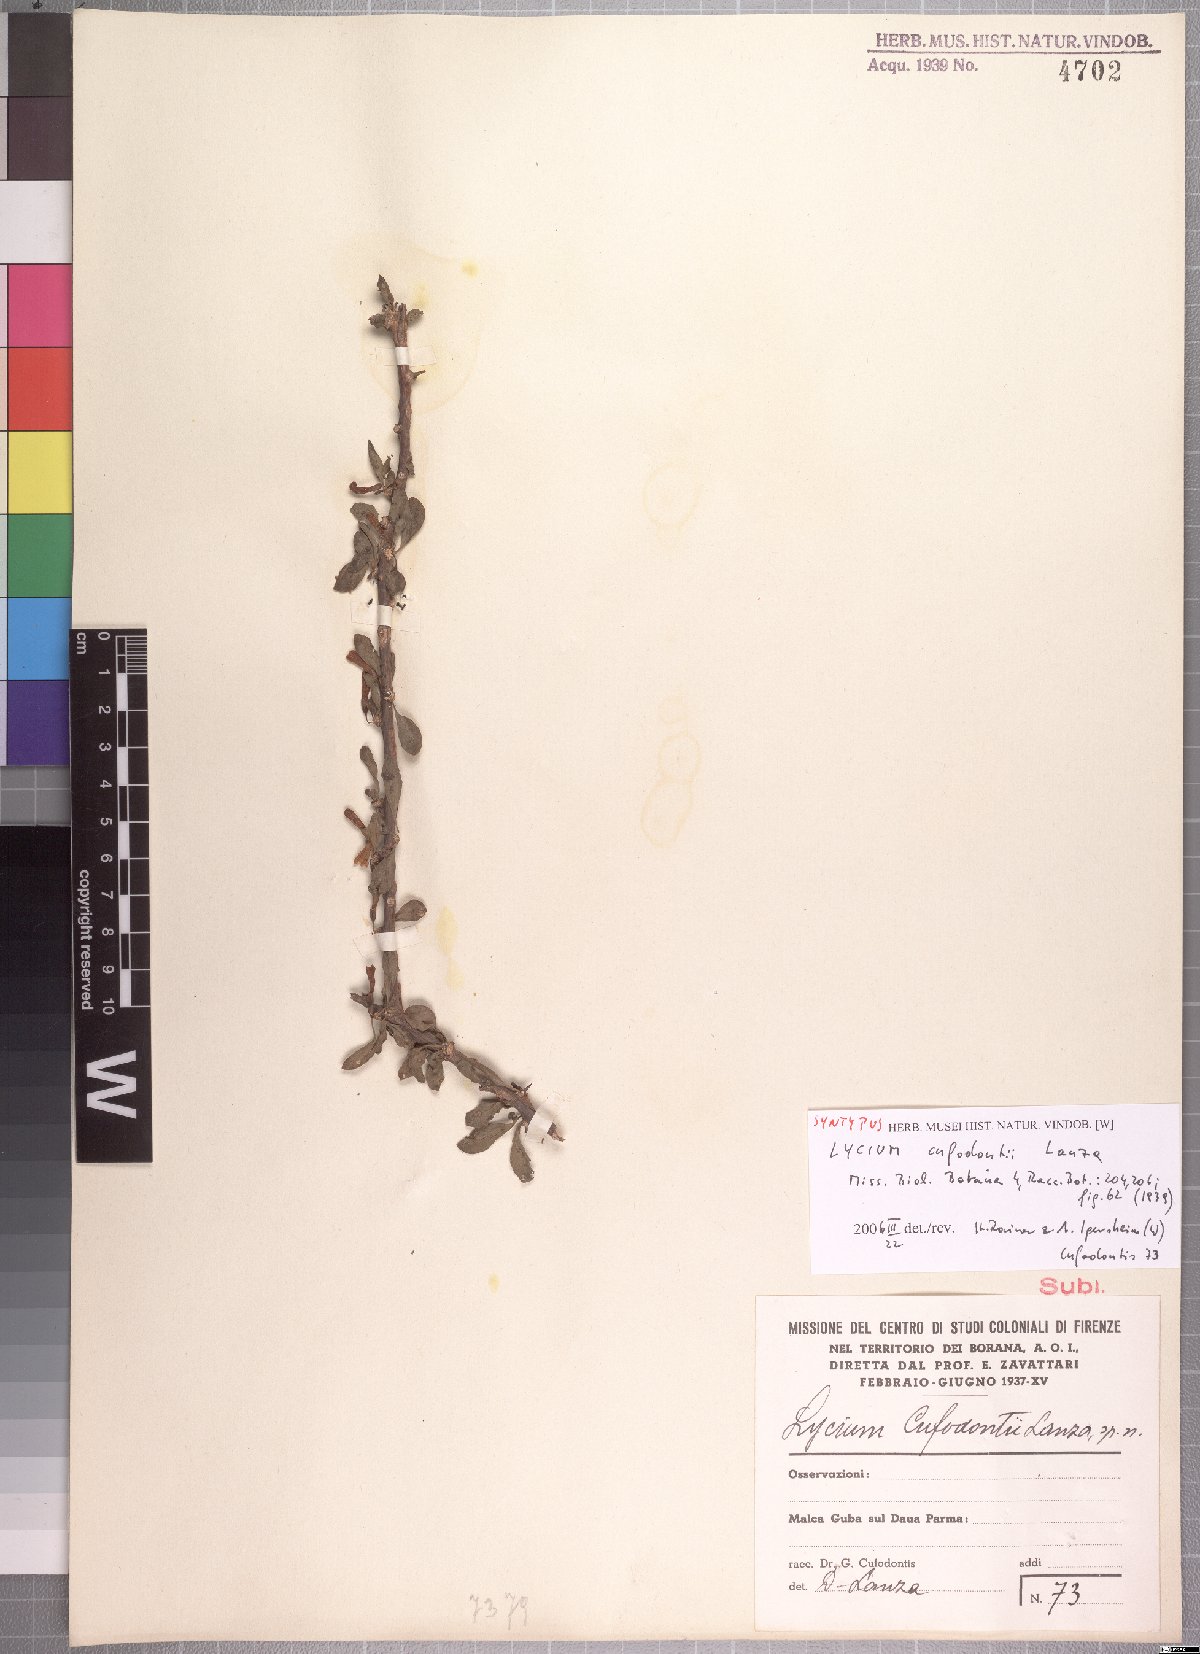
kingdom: Plantae
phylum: Tracheophyta
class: Magnoliopsida
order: Solanales
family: Solanaceae
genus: Lycium
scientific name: Lycium shawii
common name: Boxthorn
